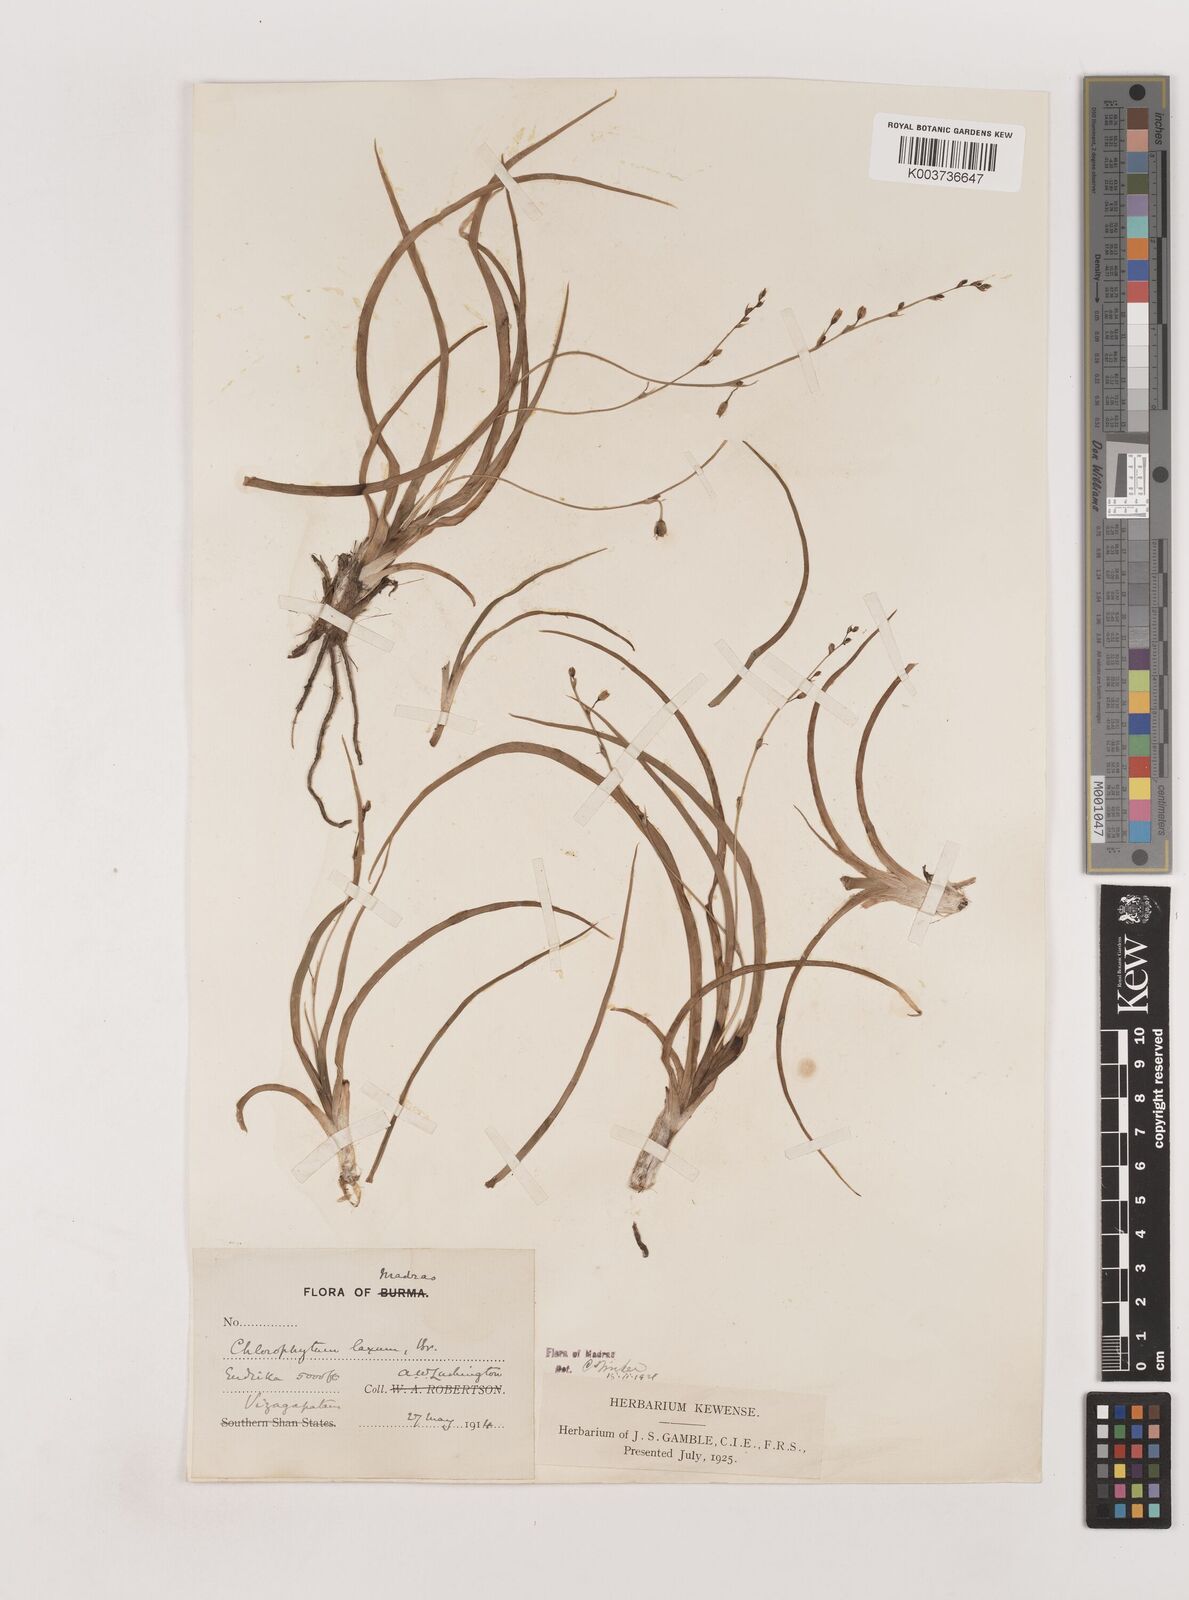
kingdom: Plantae
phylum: Tracheophyta
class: Liliopsida
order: Asparagales
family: Asparagaceae
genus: Chlorophytum
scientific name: Chlorophytum laxum
